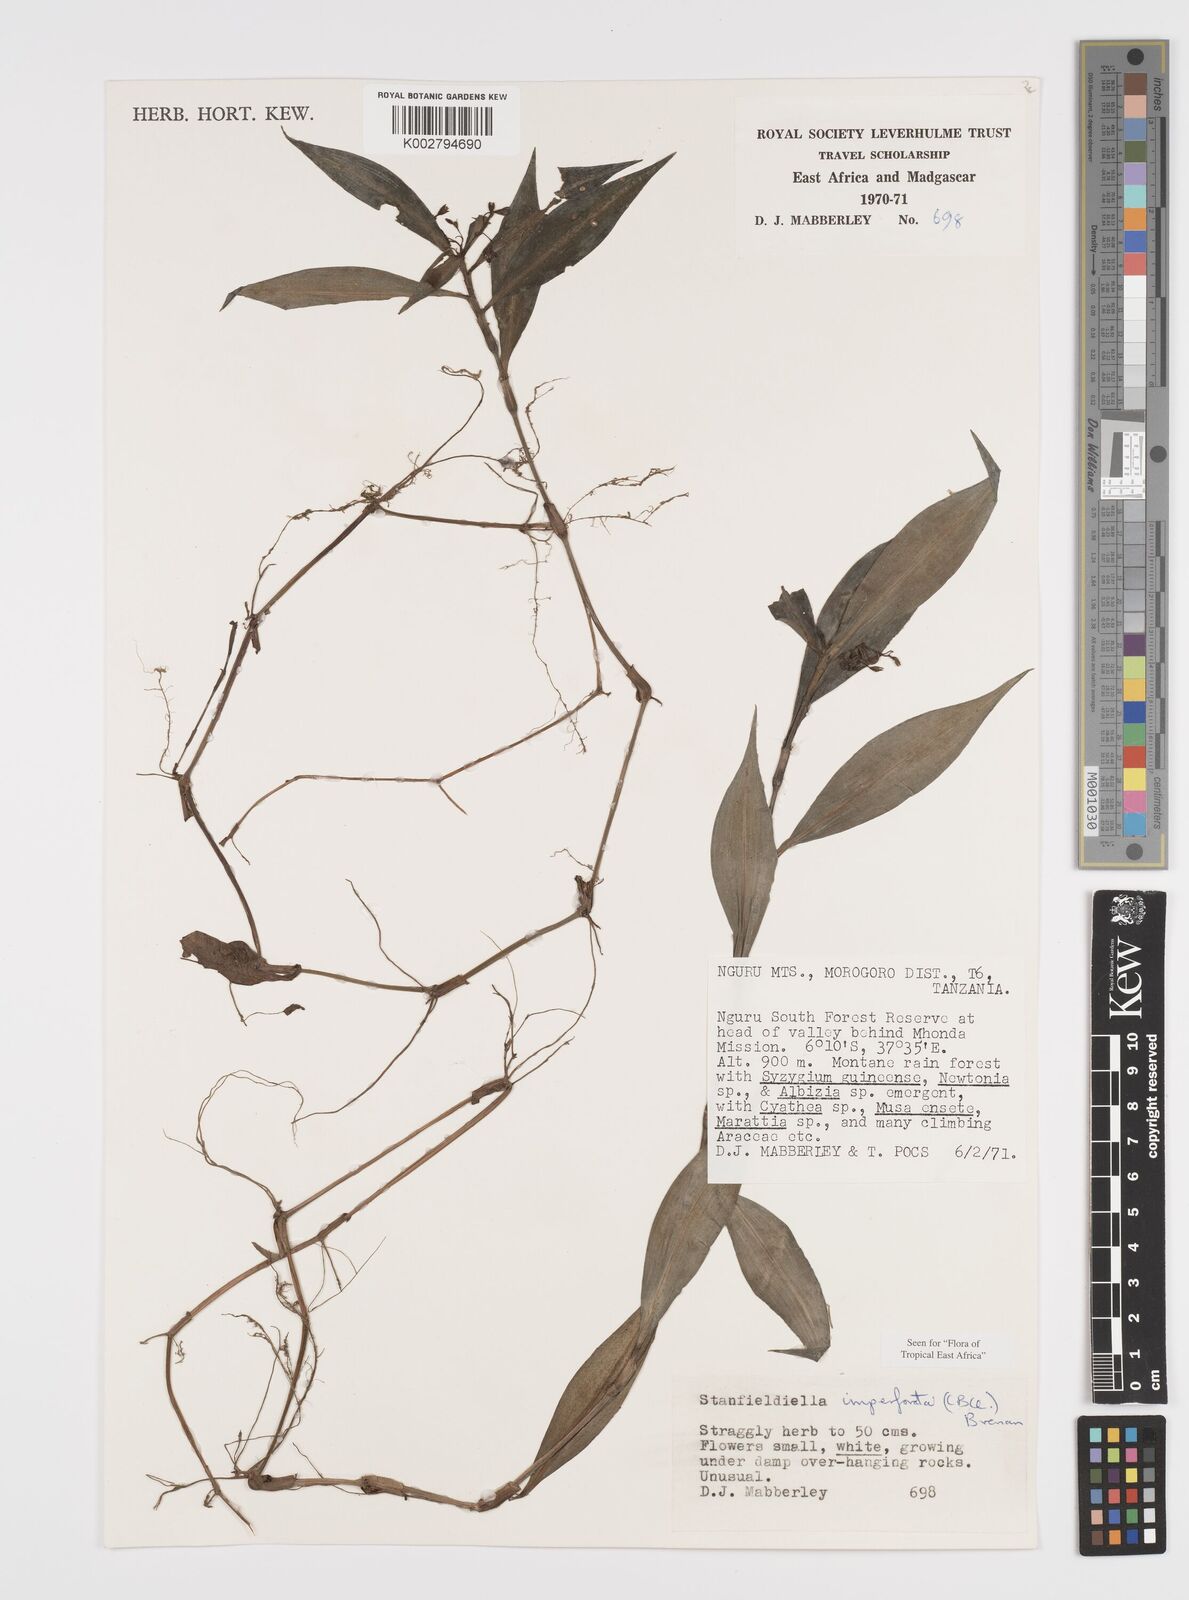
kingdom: Plantae
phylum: Tracheophyta
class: Liliopsida
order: Commelinales
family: Commelinaceae
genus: Stanfieldiella
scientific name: Stanfieldiella imperforata
